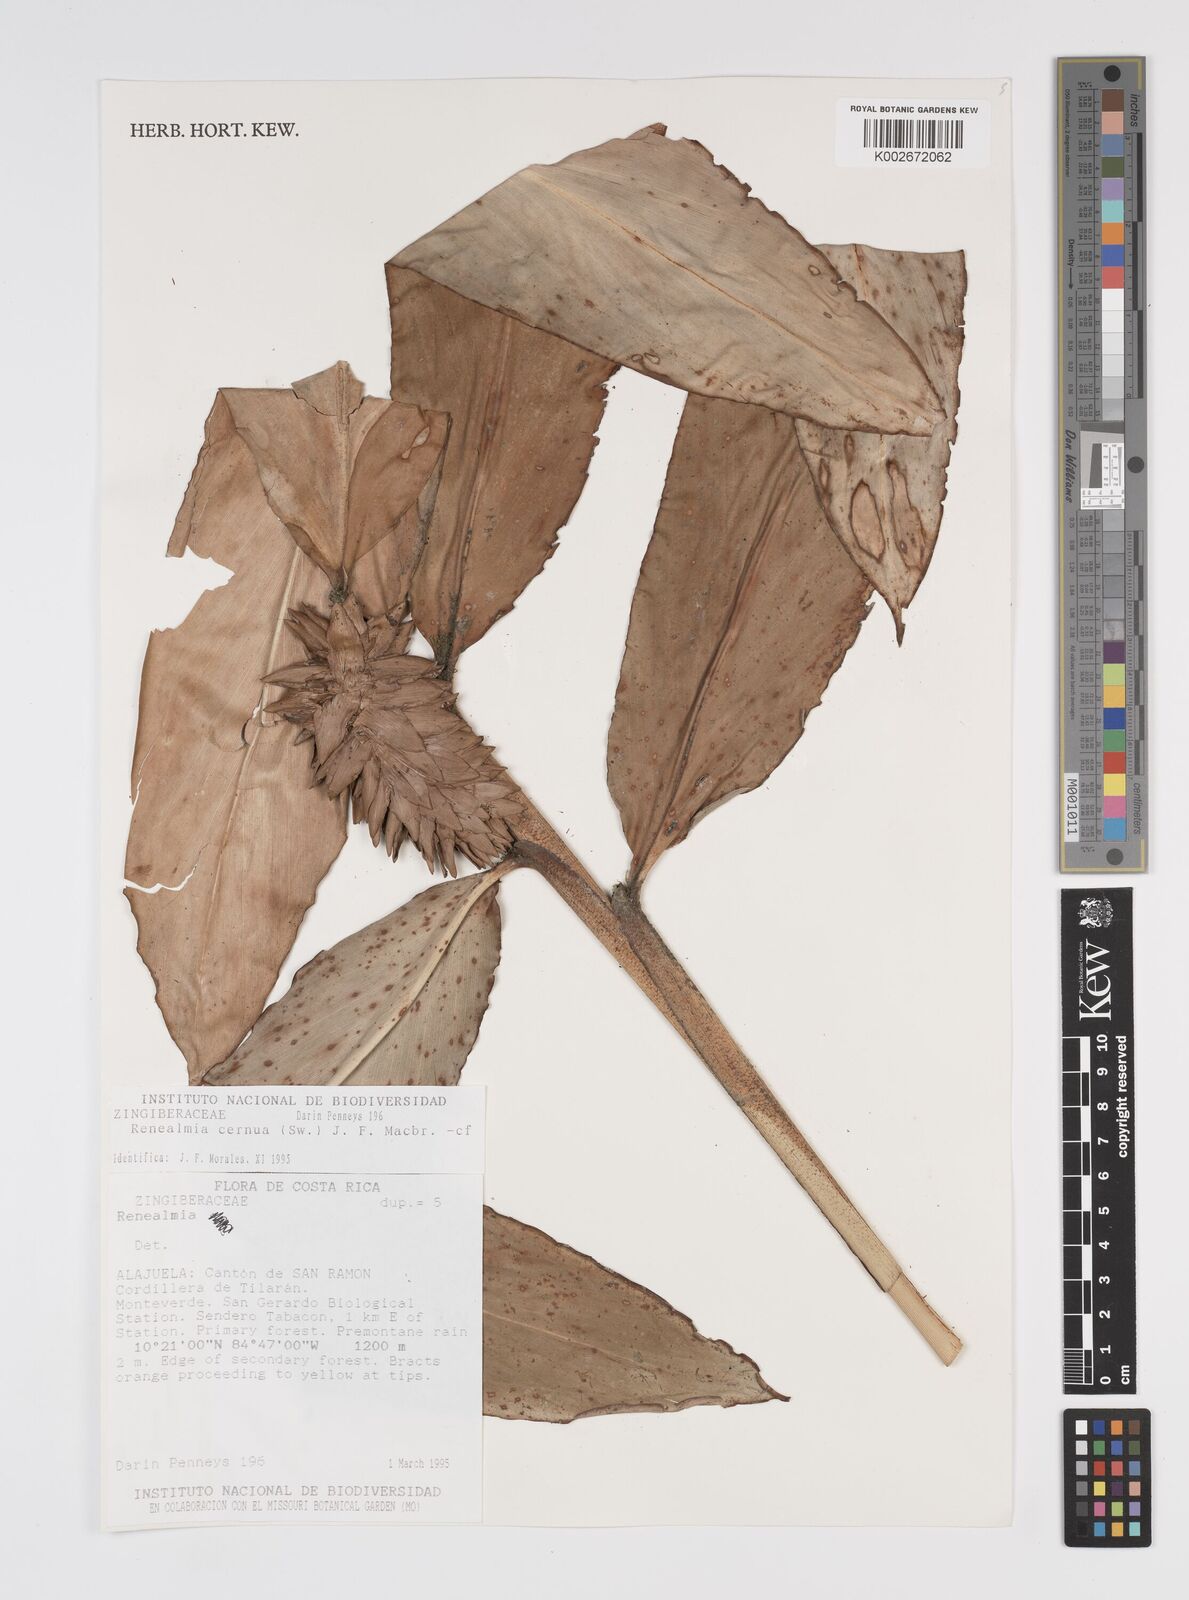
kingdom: Plantae
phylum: Tracheophyta
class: Liliopsida
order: Zingiberales
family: Zingiberaceae
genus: Renealmia
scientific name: Renealmia
